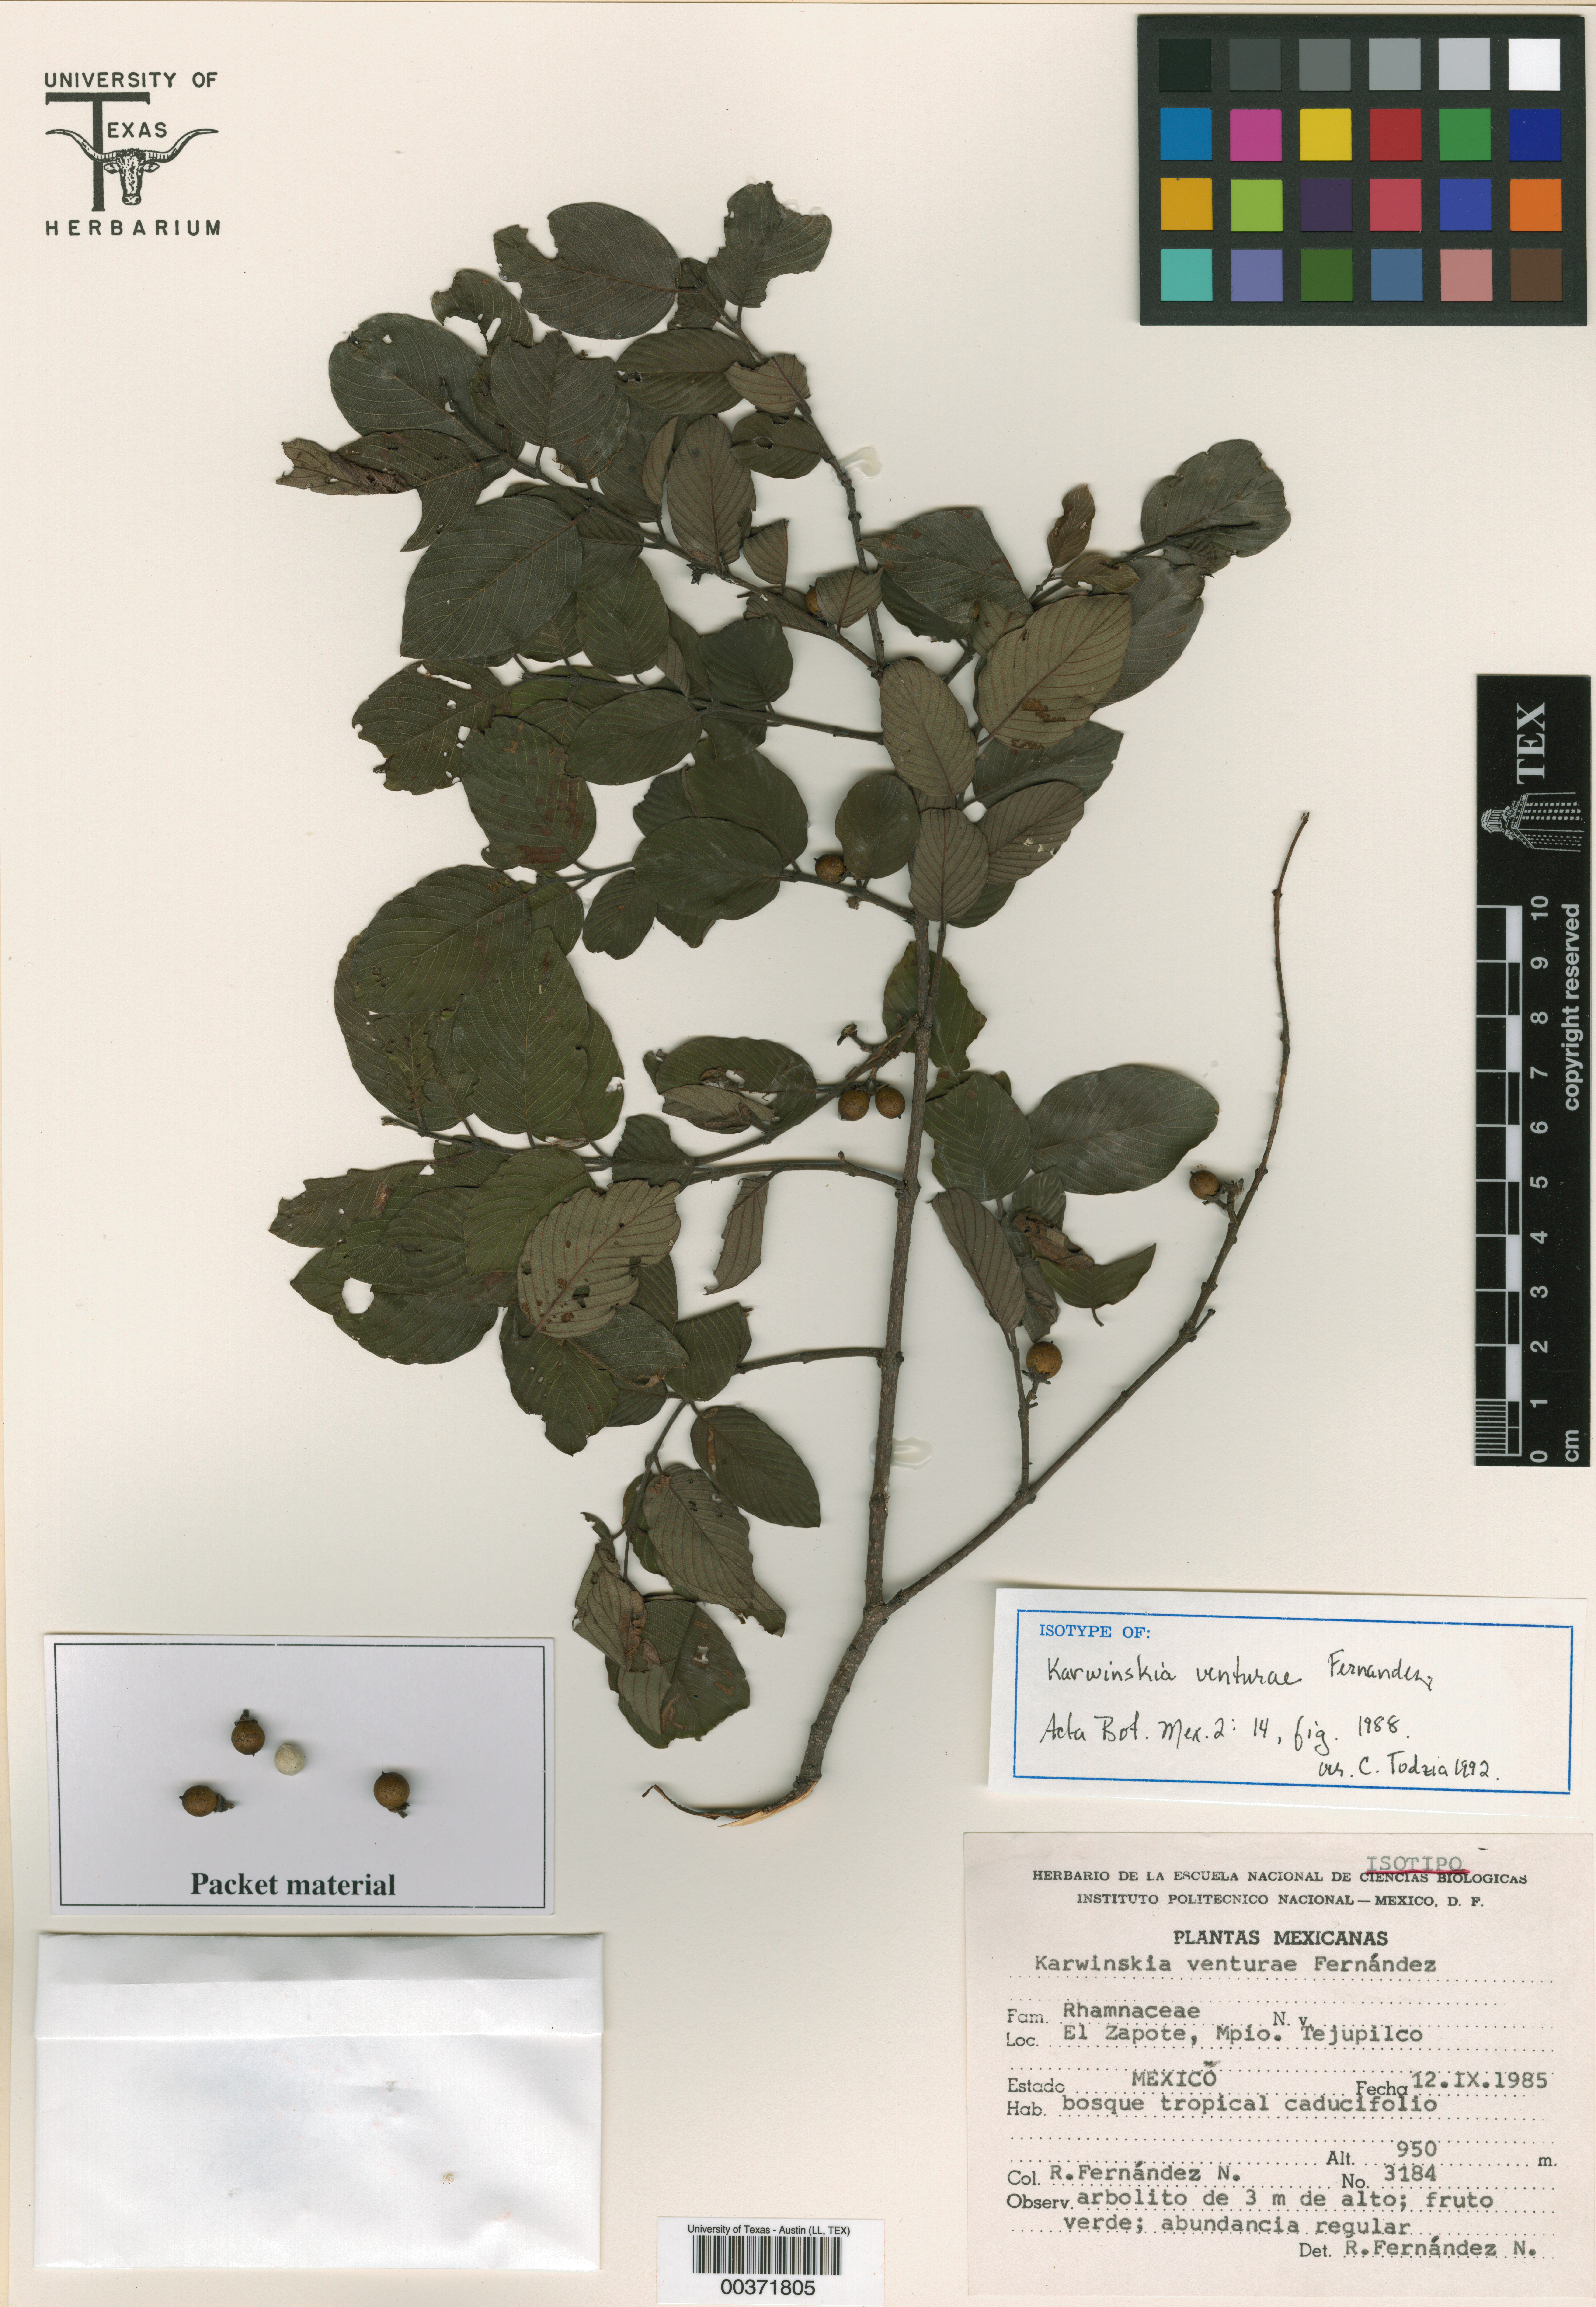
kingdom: Plantae
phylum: Tracheophyta
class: Magnoliopsida
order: Rosales
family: Rhamnaceae
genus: Karwinskia
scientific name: Karwinskia venturae
